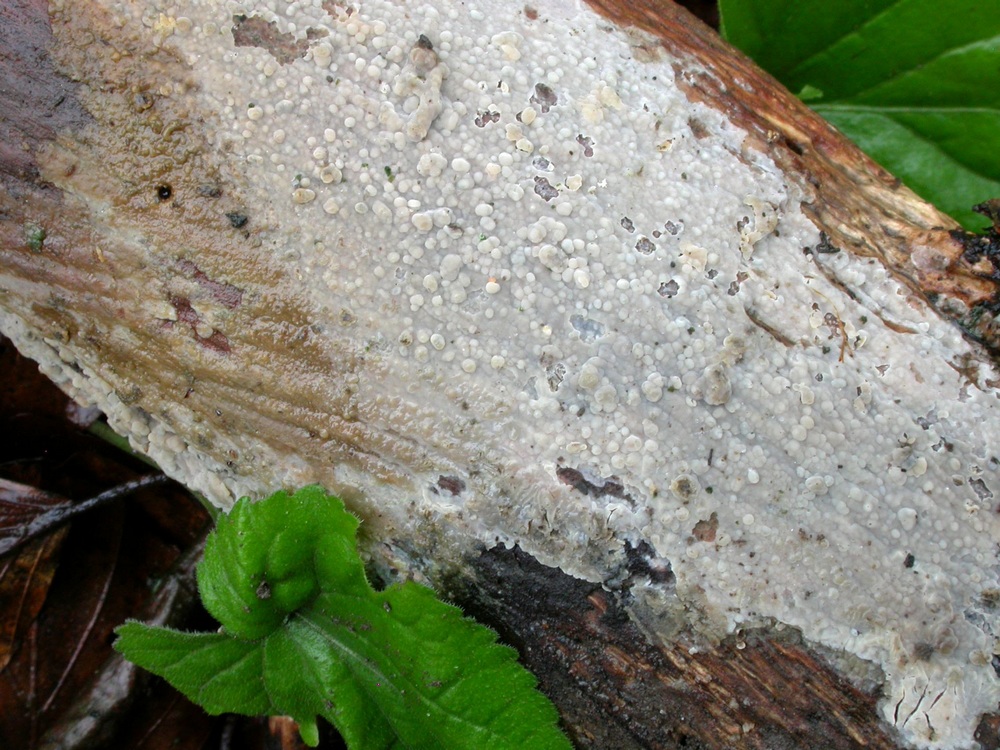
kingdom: Fungi
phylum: Basidiomycota
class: Agaricomycetes
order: Agaricales
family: Radulomycetaceae
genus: Radulomyces
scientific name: Radulomyces confluens
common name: glat naftalinskind
